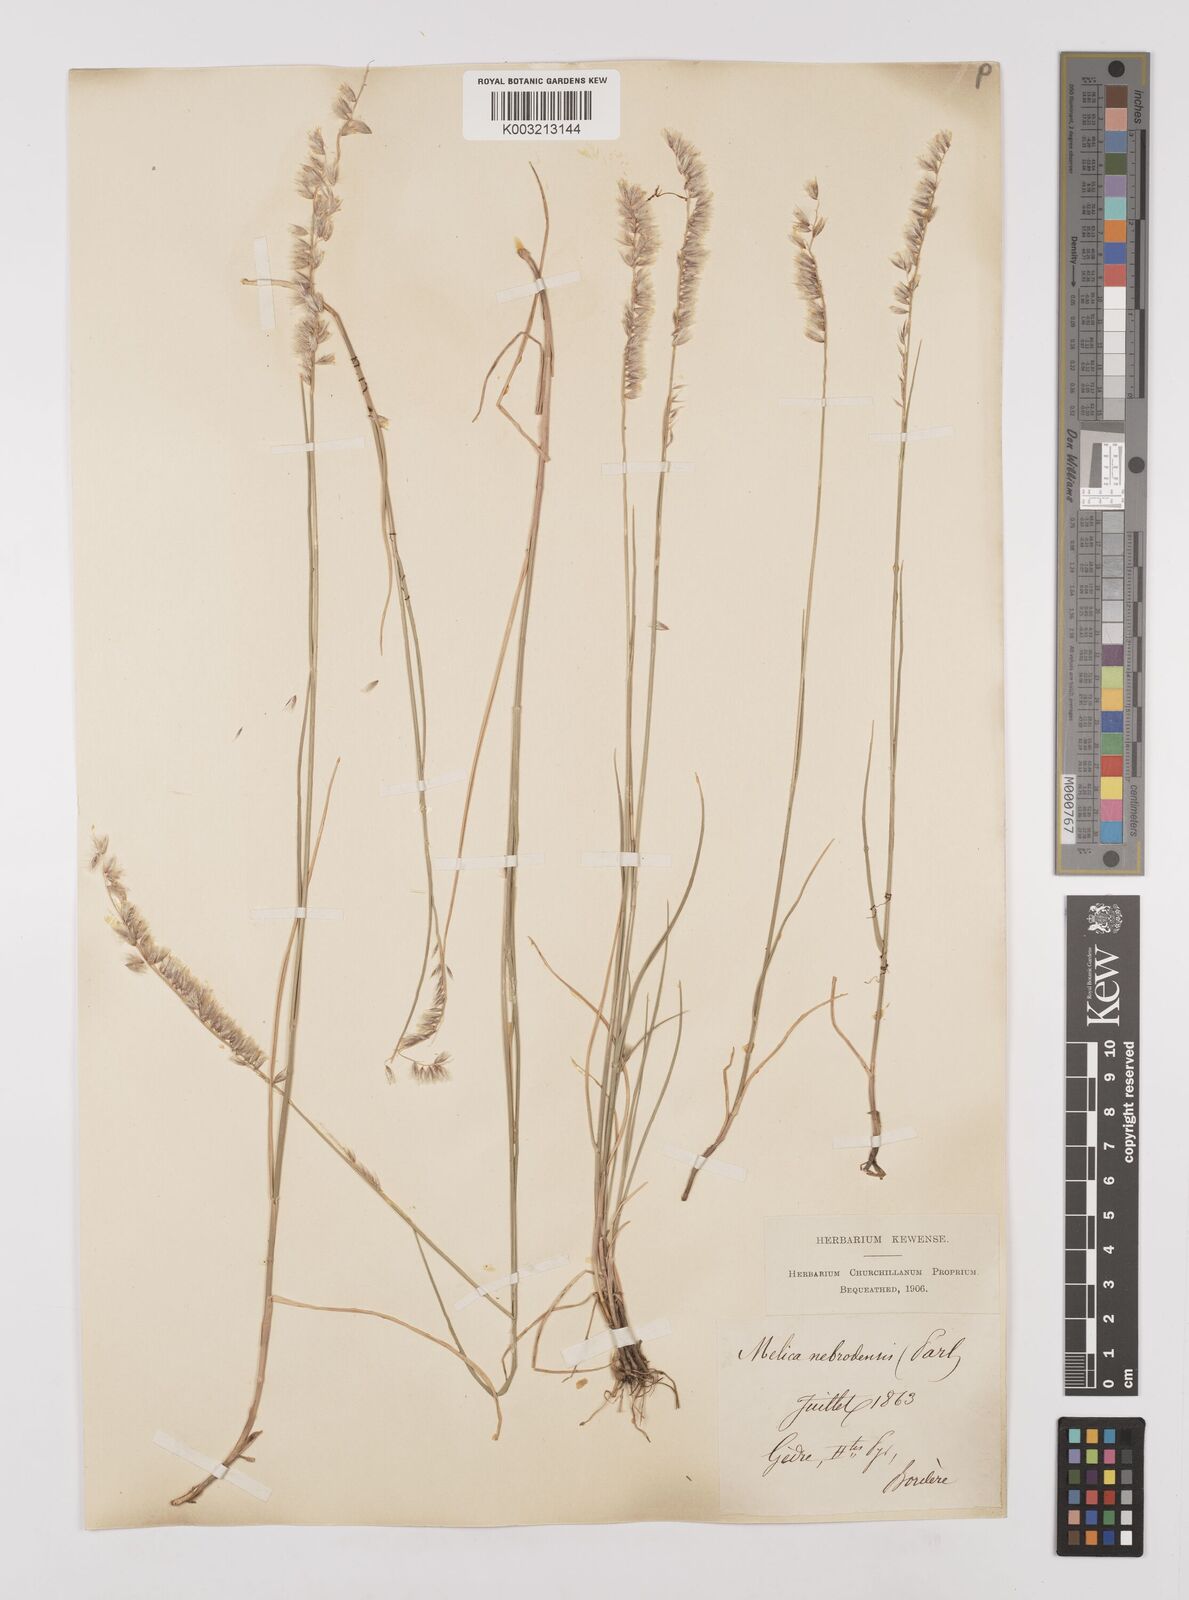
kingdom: Plantae
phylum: Tracheophyta
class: Liliopsida
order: Poales
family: Poaceae
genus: Melica
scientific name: Melica ciliata
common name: Hairy melicgrass
